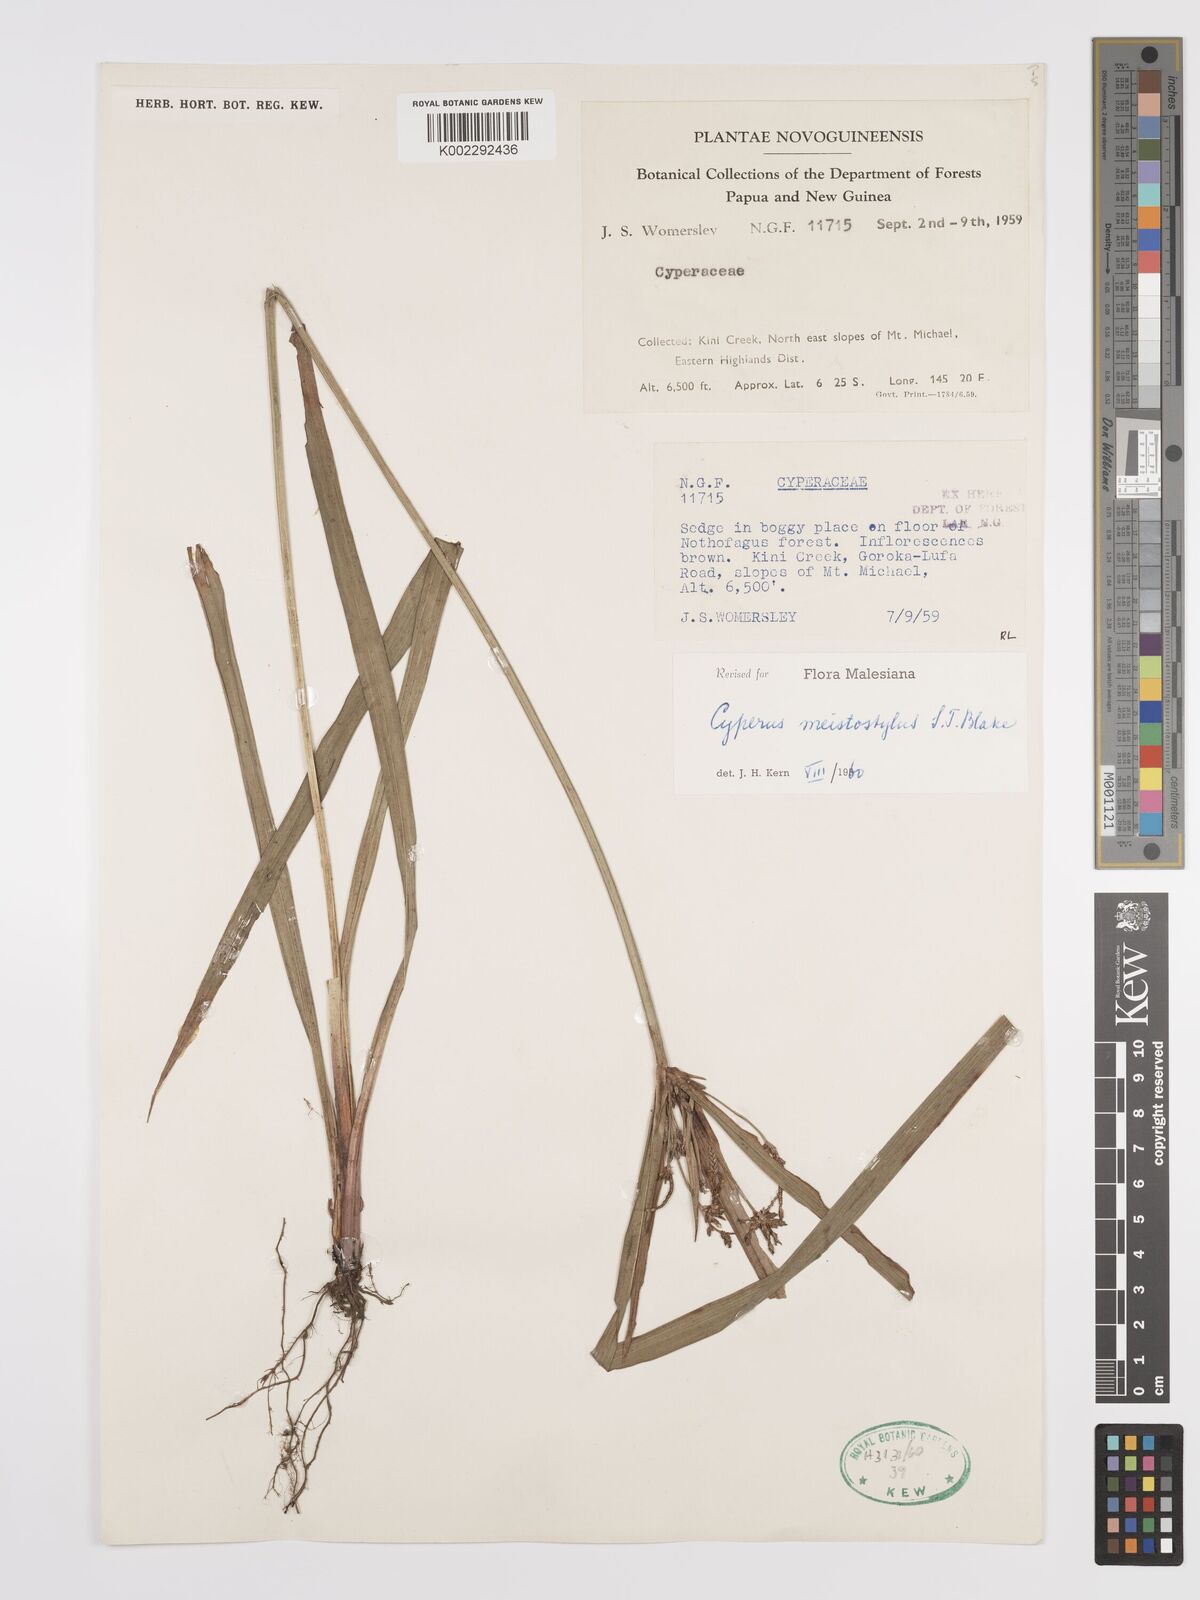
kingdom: Plantae
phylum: Tracheophyta
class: Liliopsida
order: Poales
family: Cyperaceae
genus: Cyperus
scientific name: Cyperus meistostylus
